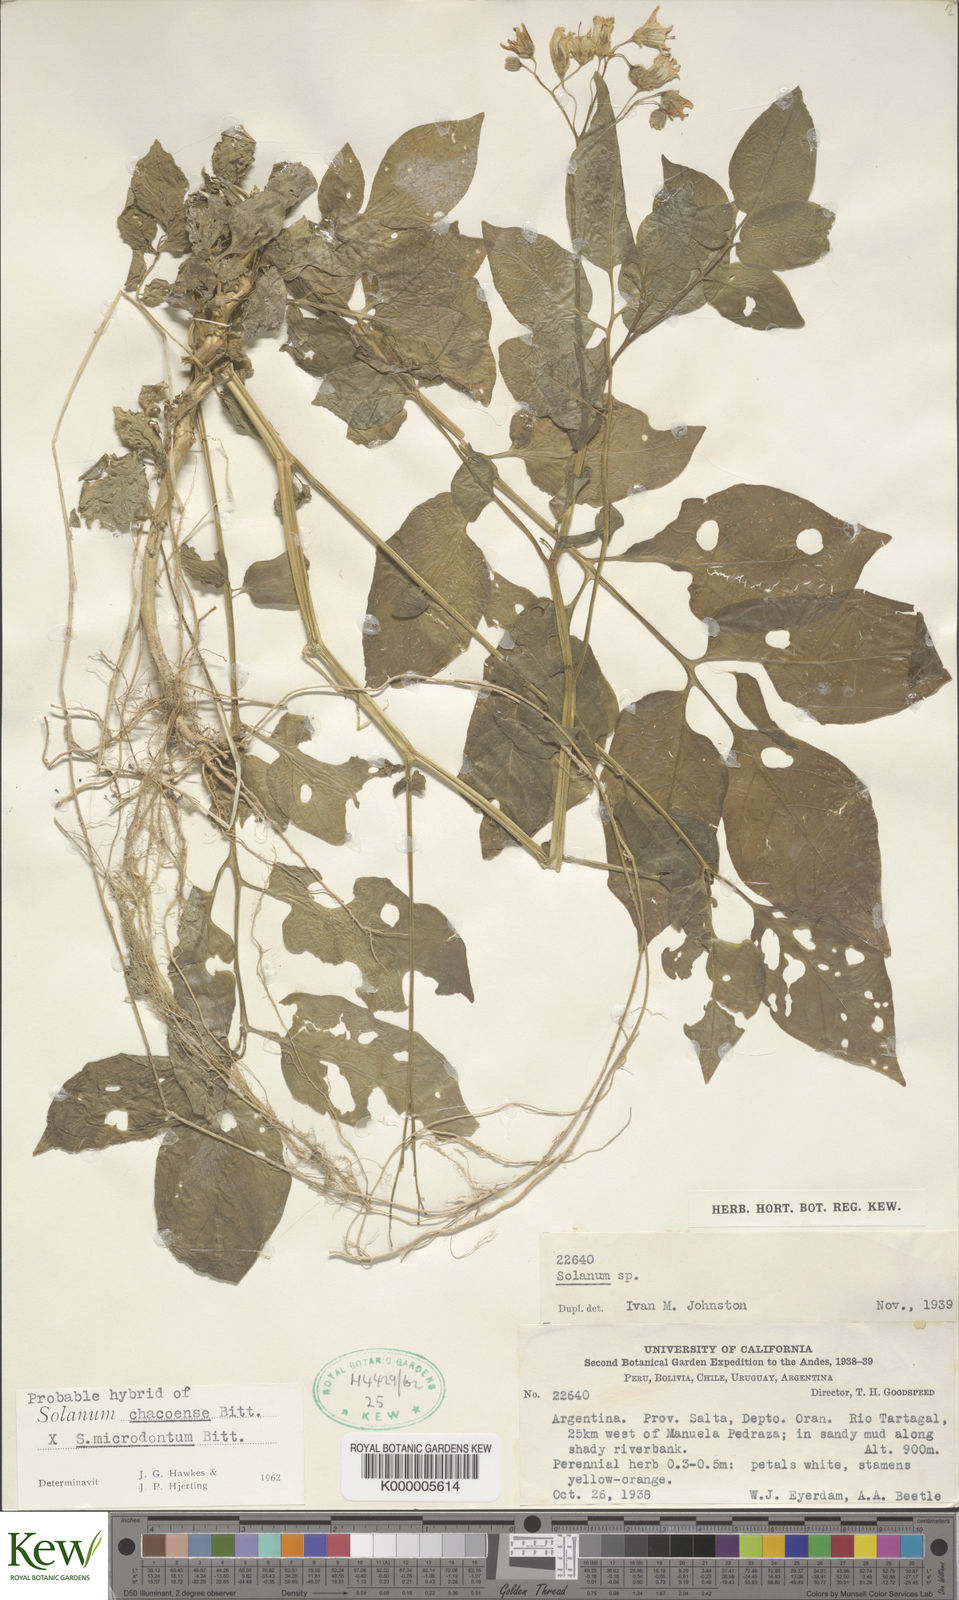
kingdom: Plantae
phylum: Tracheophyta
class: Magnoliopsida
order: Solanales
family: Solanaceae
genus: Solanum
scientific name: Solanum chacoense
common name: Chaco potato
